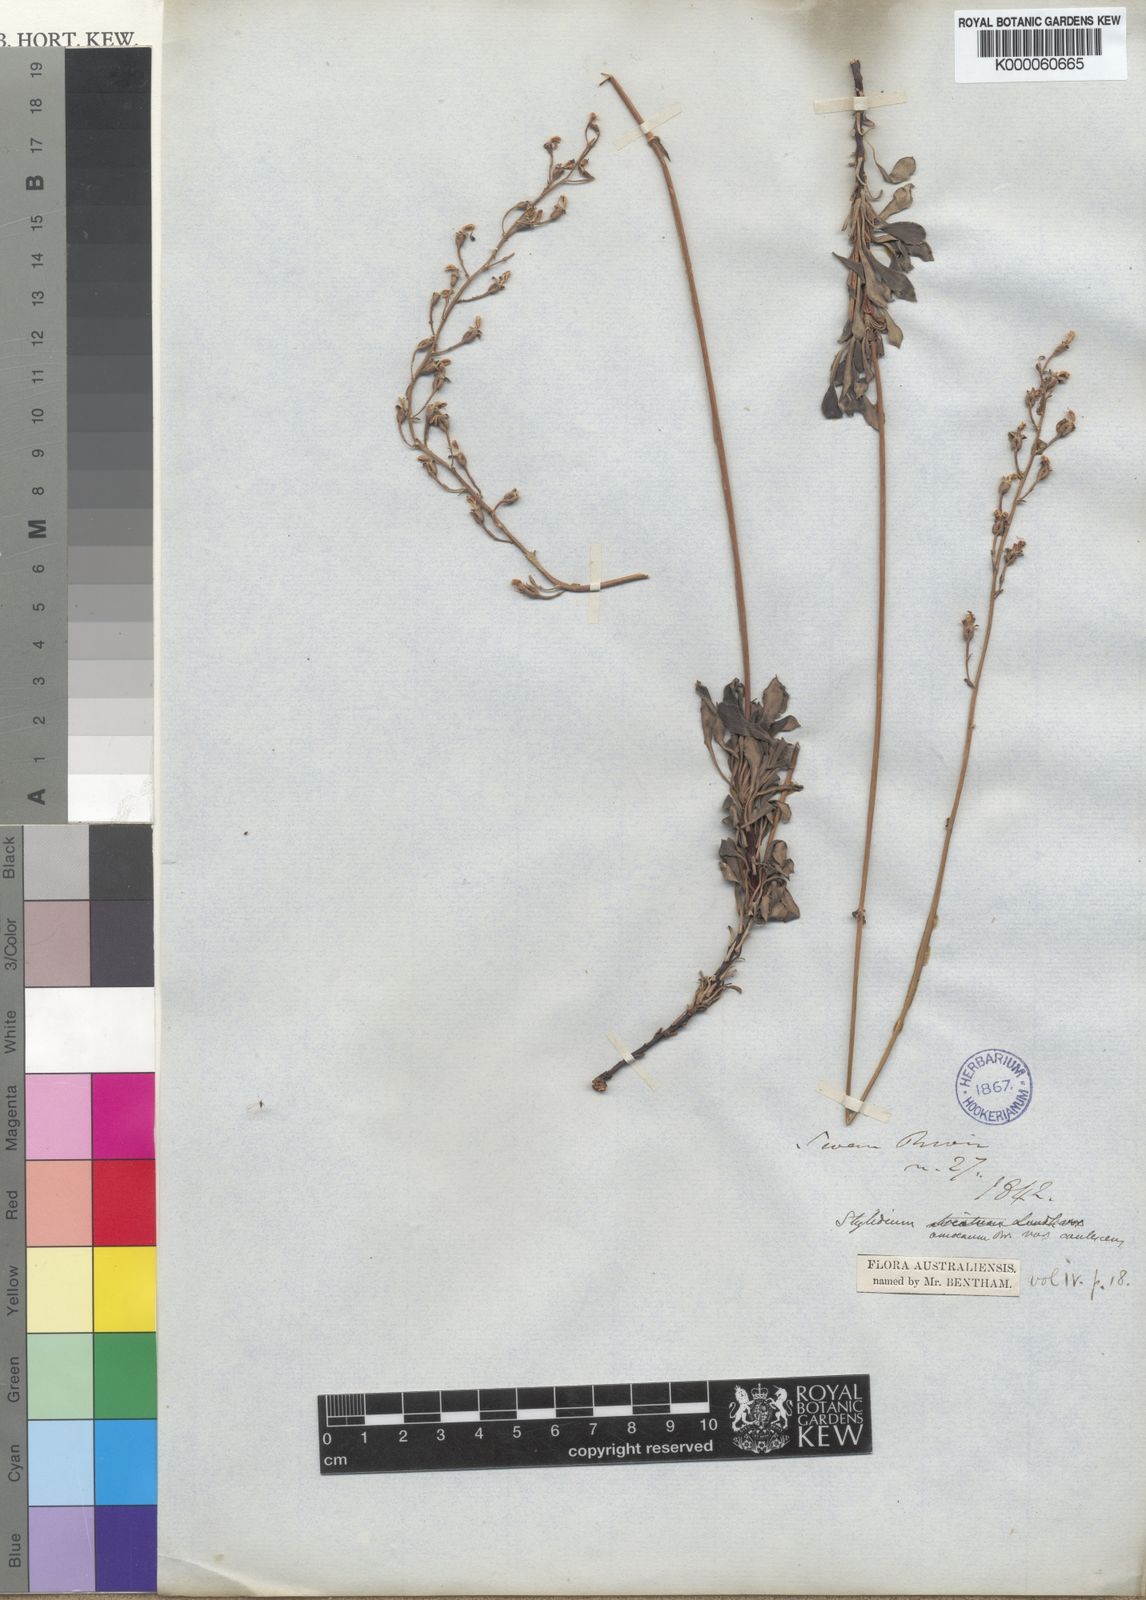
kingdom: Plantae
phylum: Tracheophyta
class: Magnoliopsida
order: Asterales
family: Stylidiaceae
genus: Stylidium
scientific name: Stylidium amoenum
